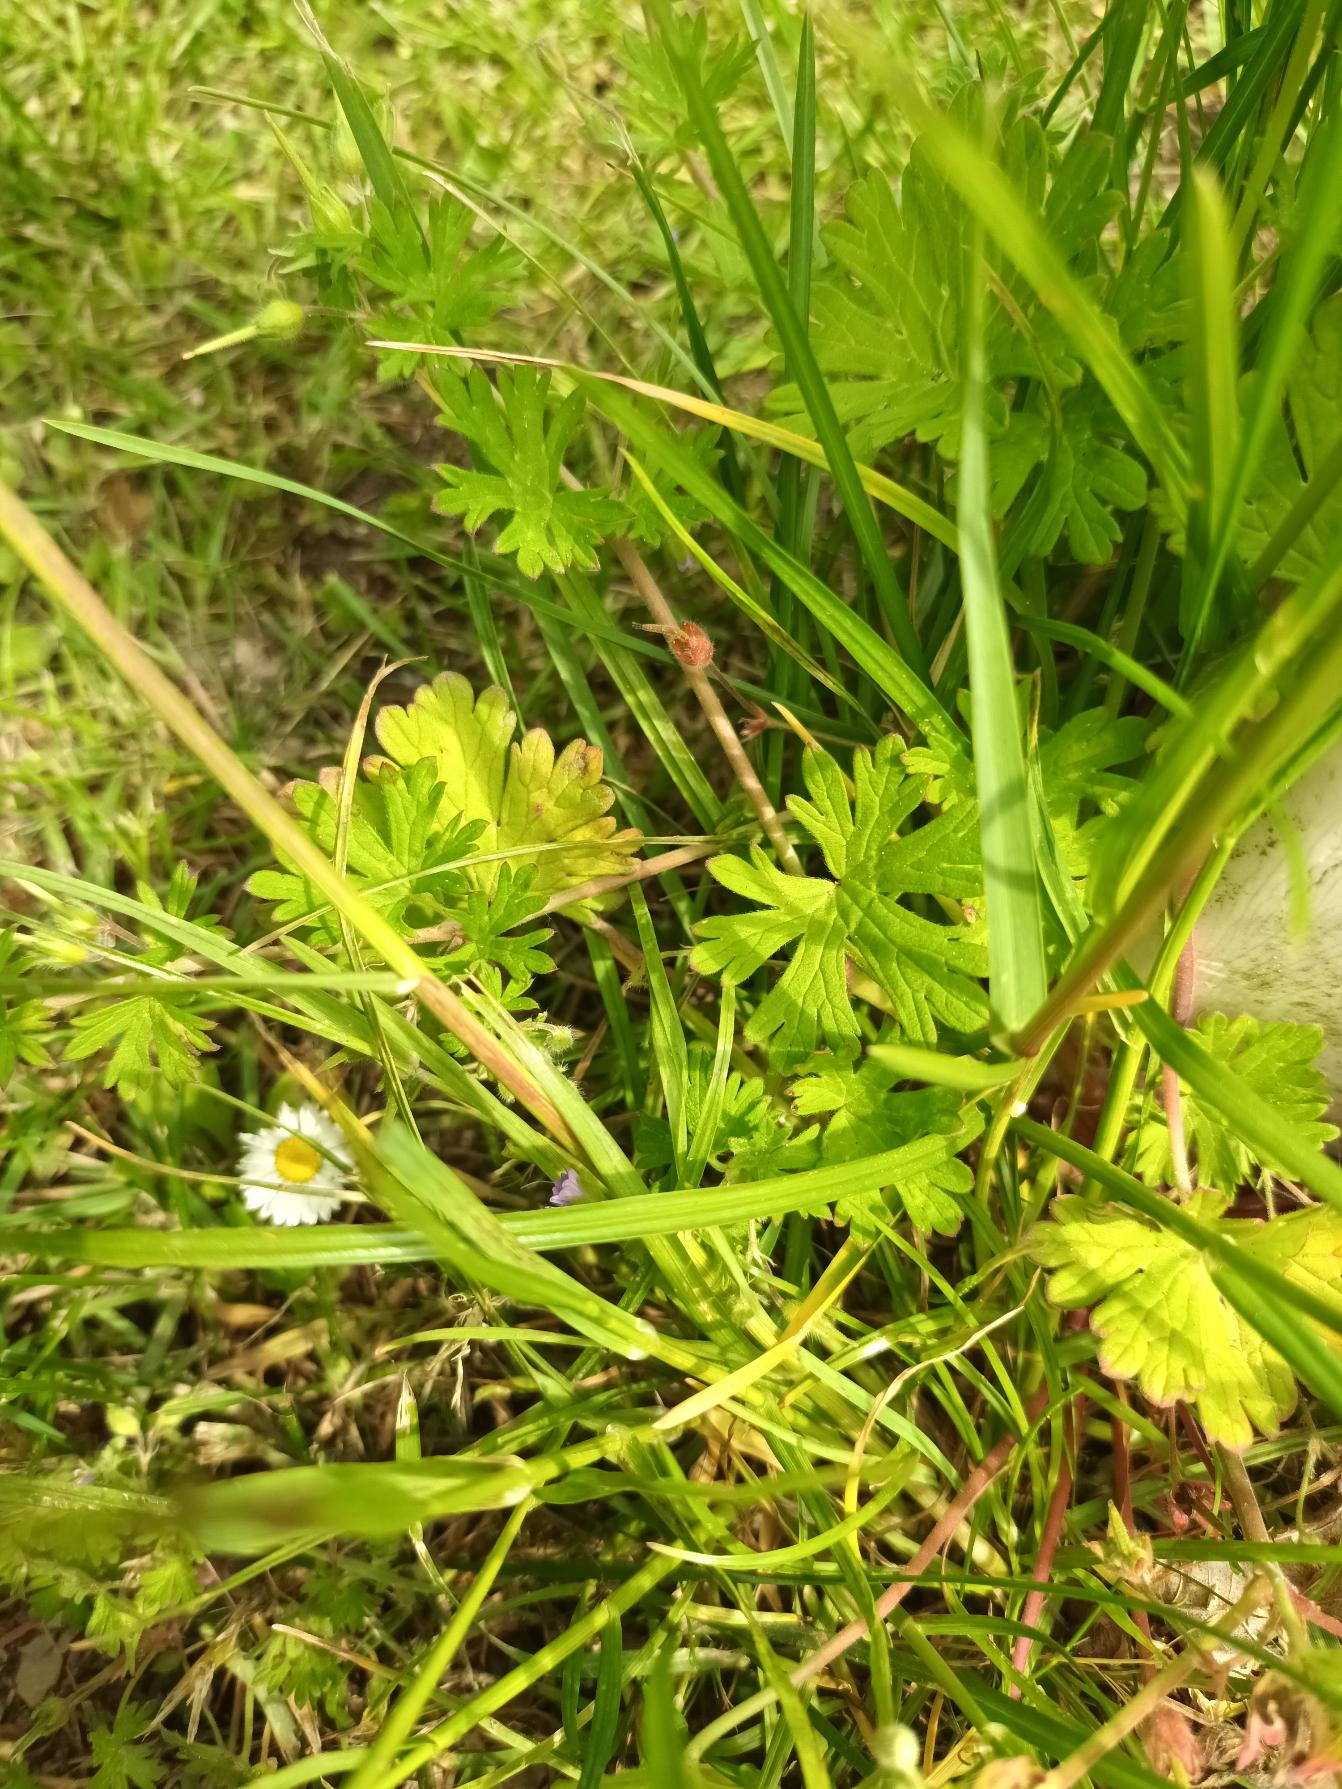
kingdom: Plantae
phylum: Tracheophyta
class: Magnoliopsida
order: Geraniales
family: Geraniaceae
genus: Geranium
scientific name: Geranium pusillum
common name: Liden storkenæb
